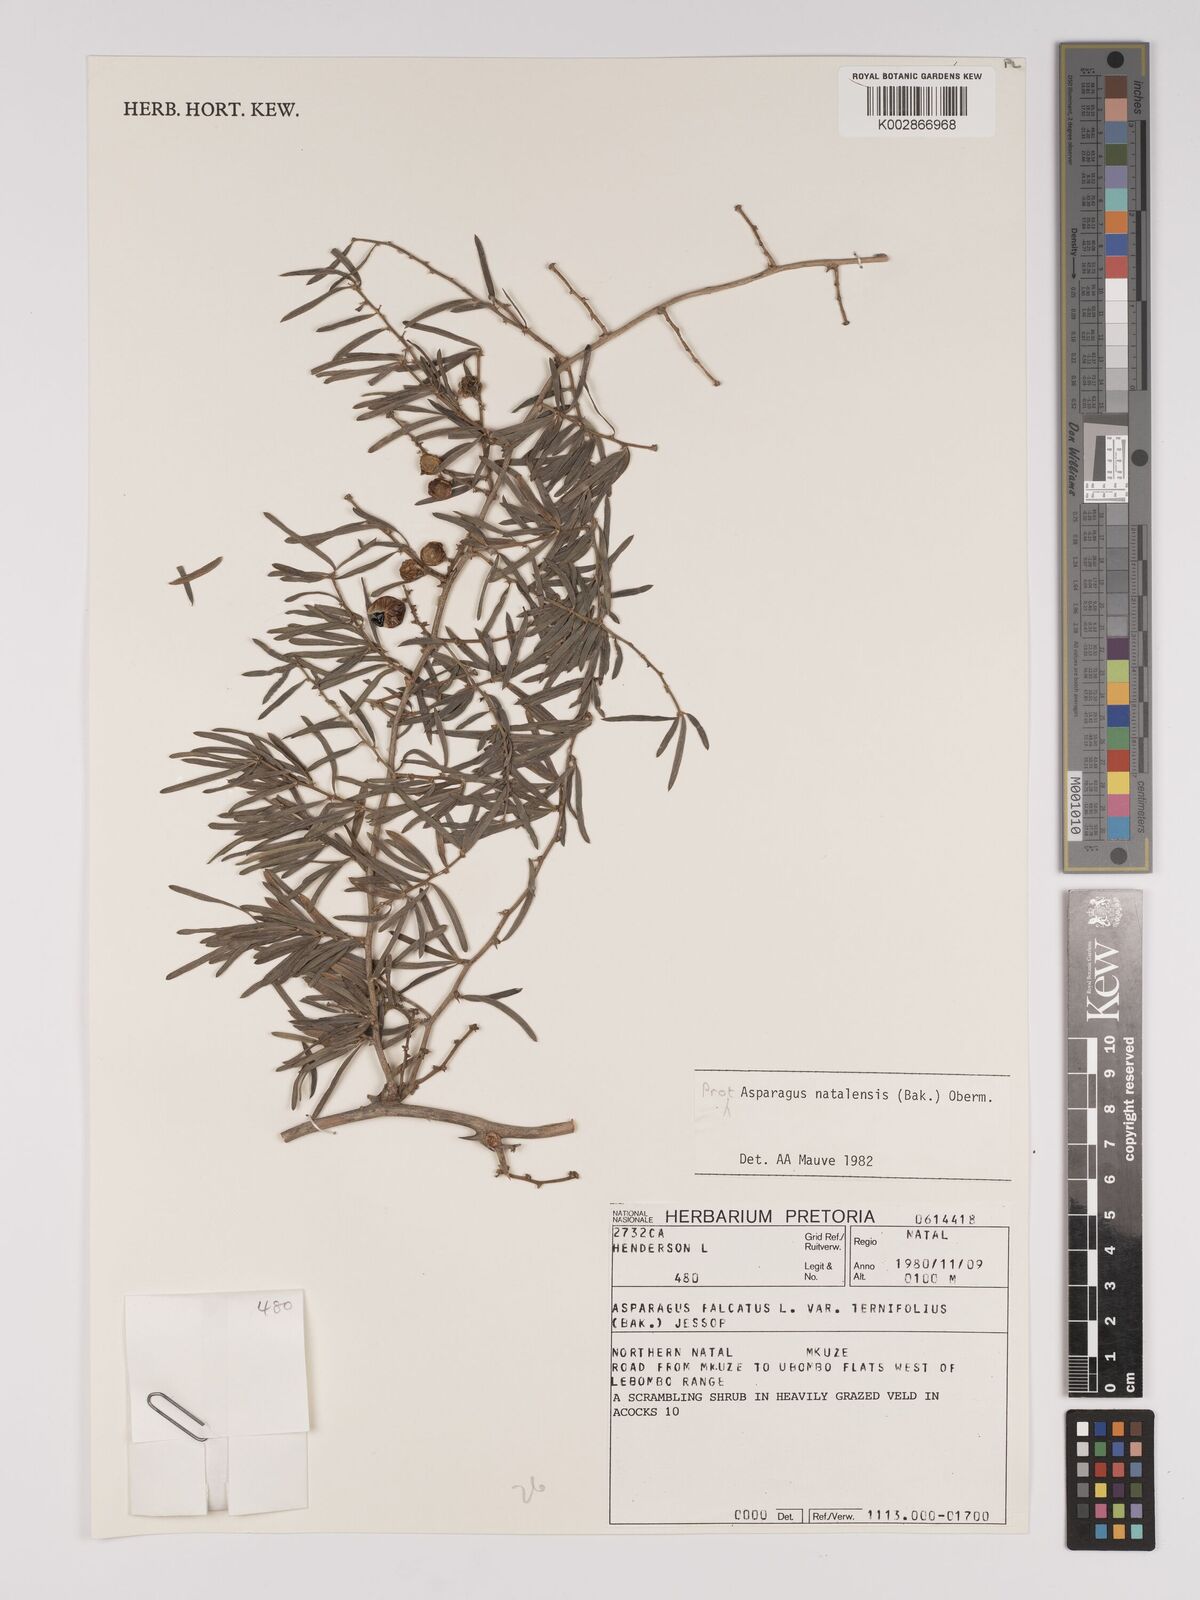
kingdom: Plantae
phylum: Tracheophyta
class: Liliopsida
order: Asparagales
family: Asparagaceae
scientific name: Asparagaceae
